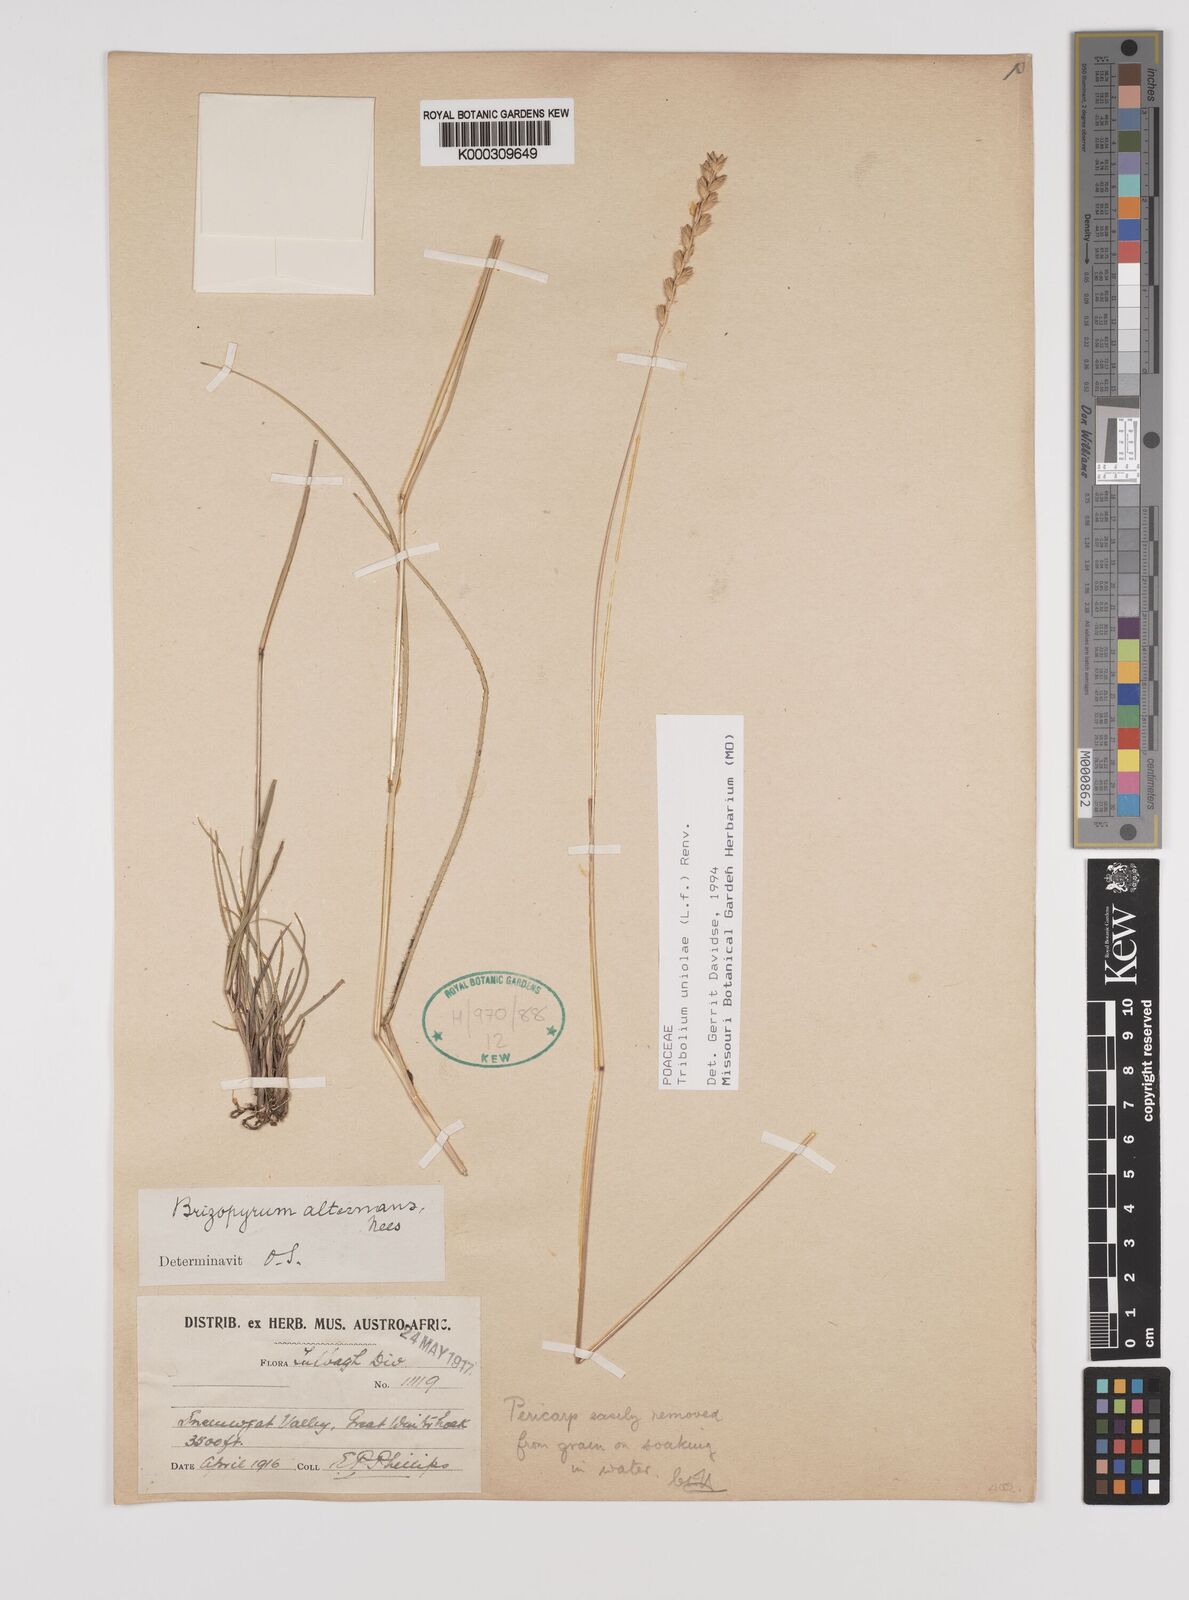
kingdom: Plantae
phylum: Tracheophyta
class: Liliopsida
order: Poales
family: Poaceae
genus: Tribolium
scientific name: Tribolium uniolae
